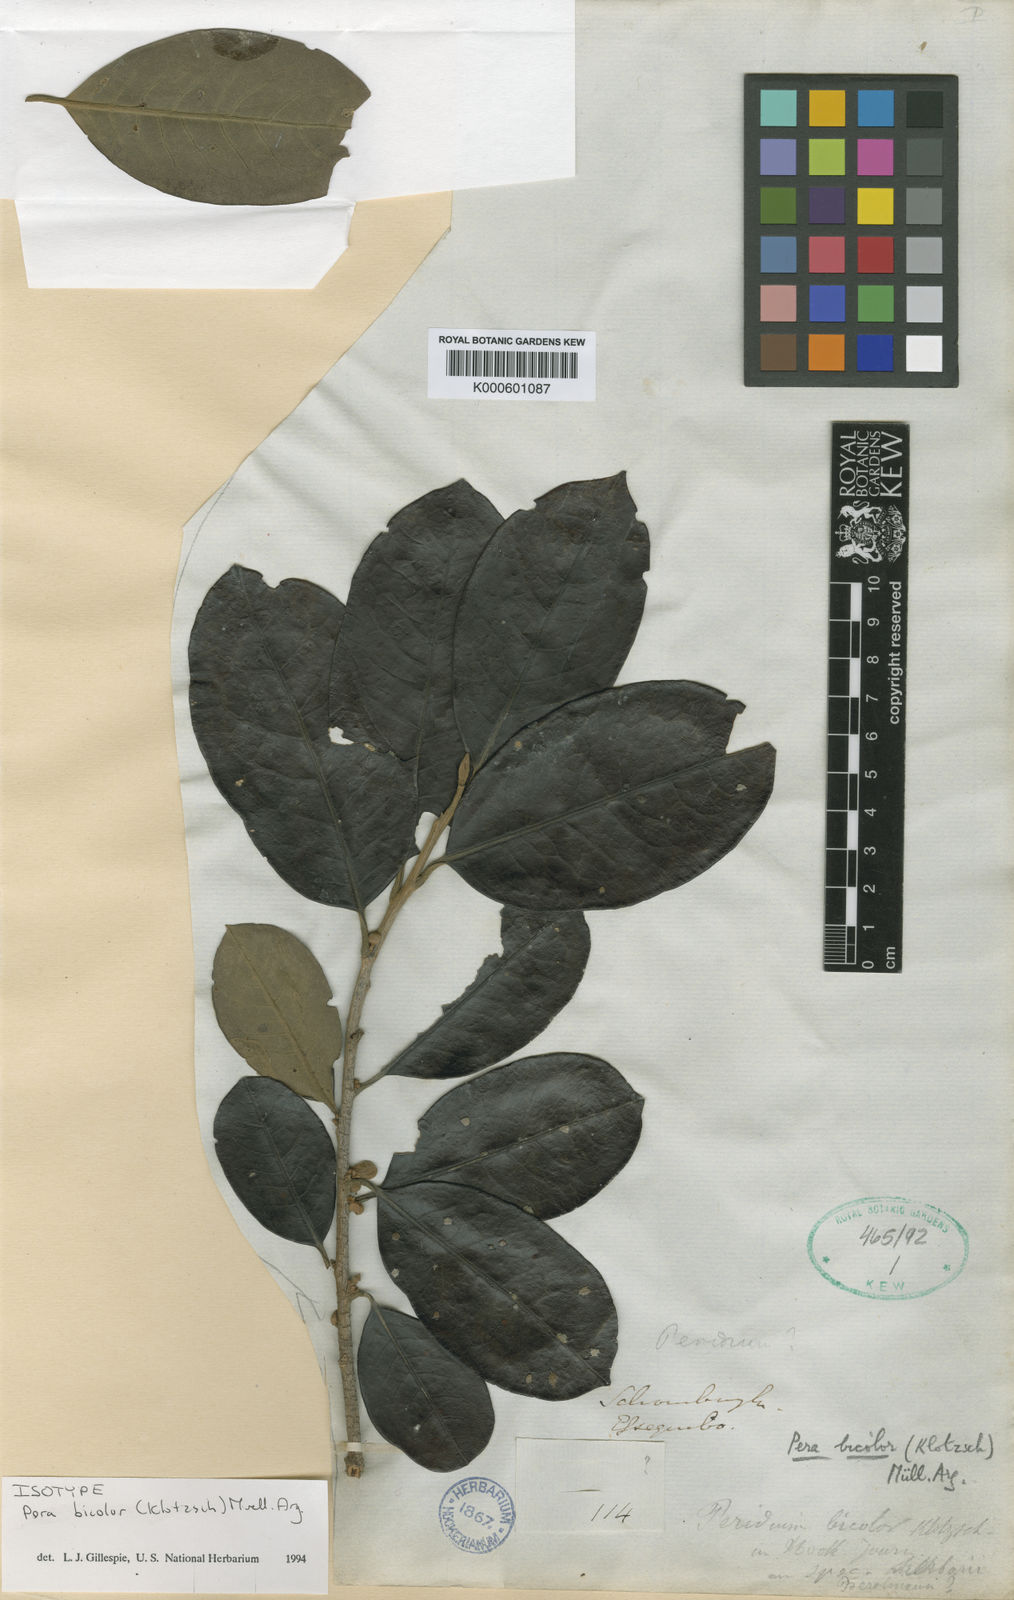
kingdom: Plantae
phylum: Tracheophyta
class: Magnoliopsida
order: Malpighiales
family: Peraceae
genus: Pera
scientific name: Pera
